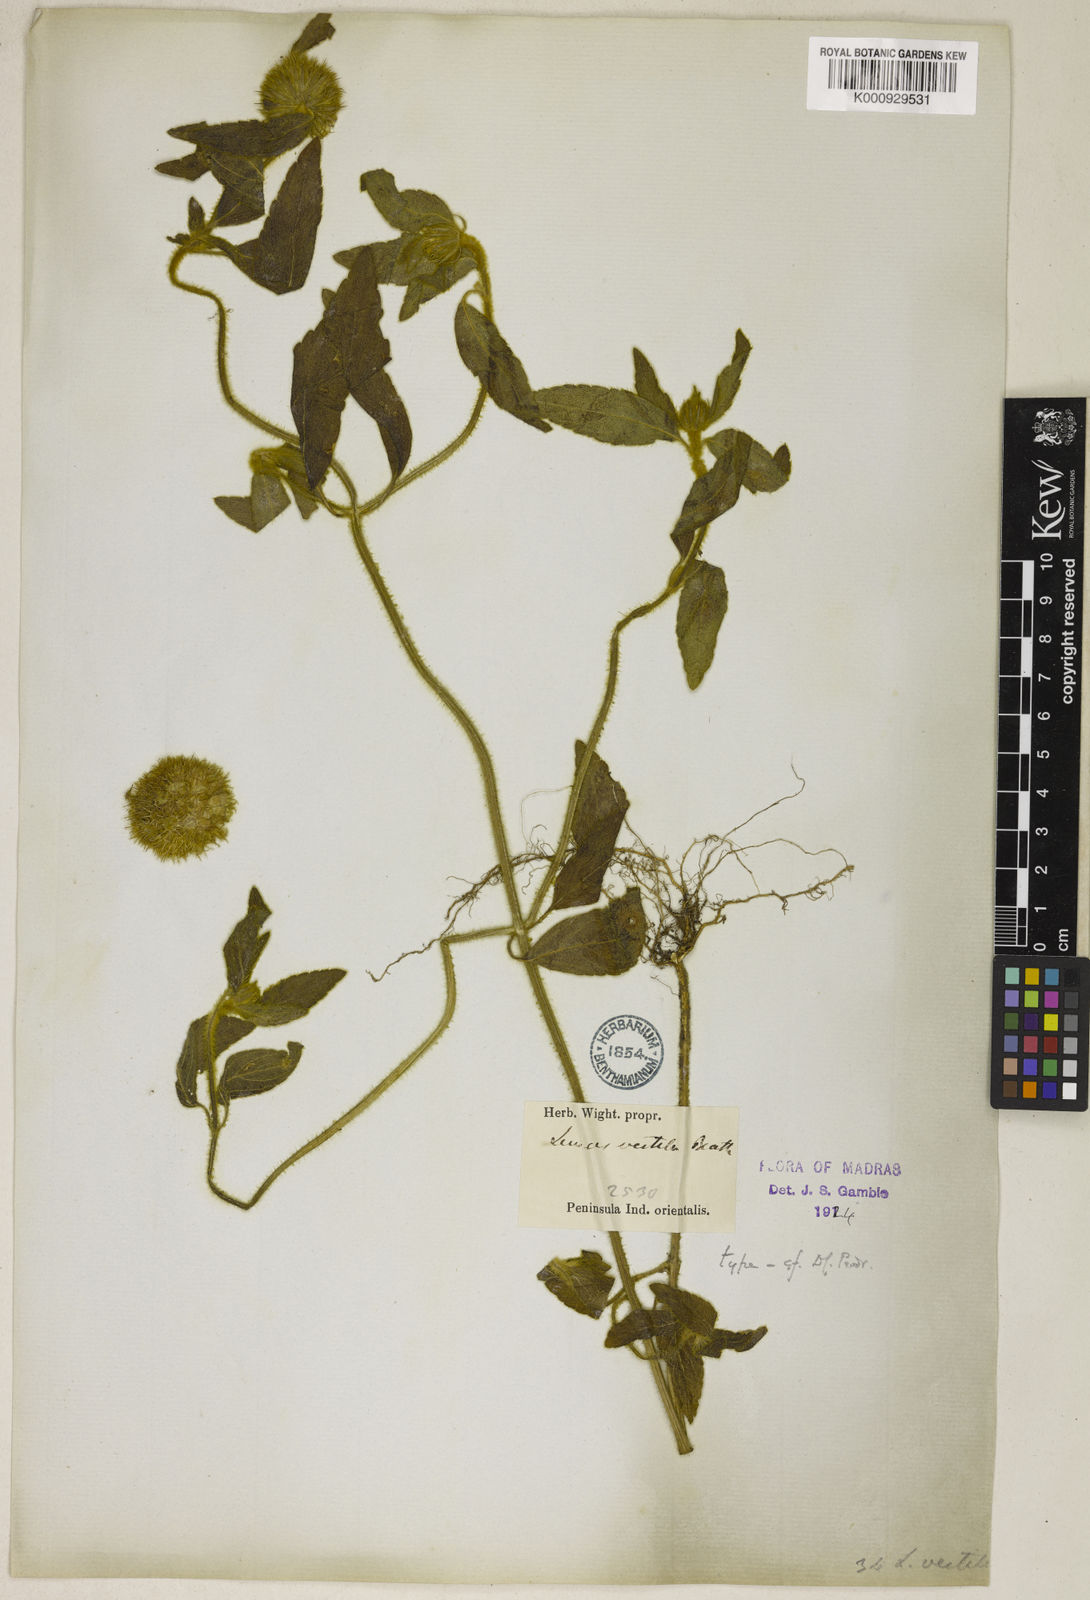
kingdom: Plantae
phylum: Tracheophyta
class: Magnoliopsida
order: Lamiales
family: Lamiaceae
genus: Leucas
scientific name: Leucas vestita
